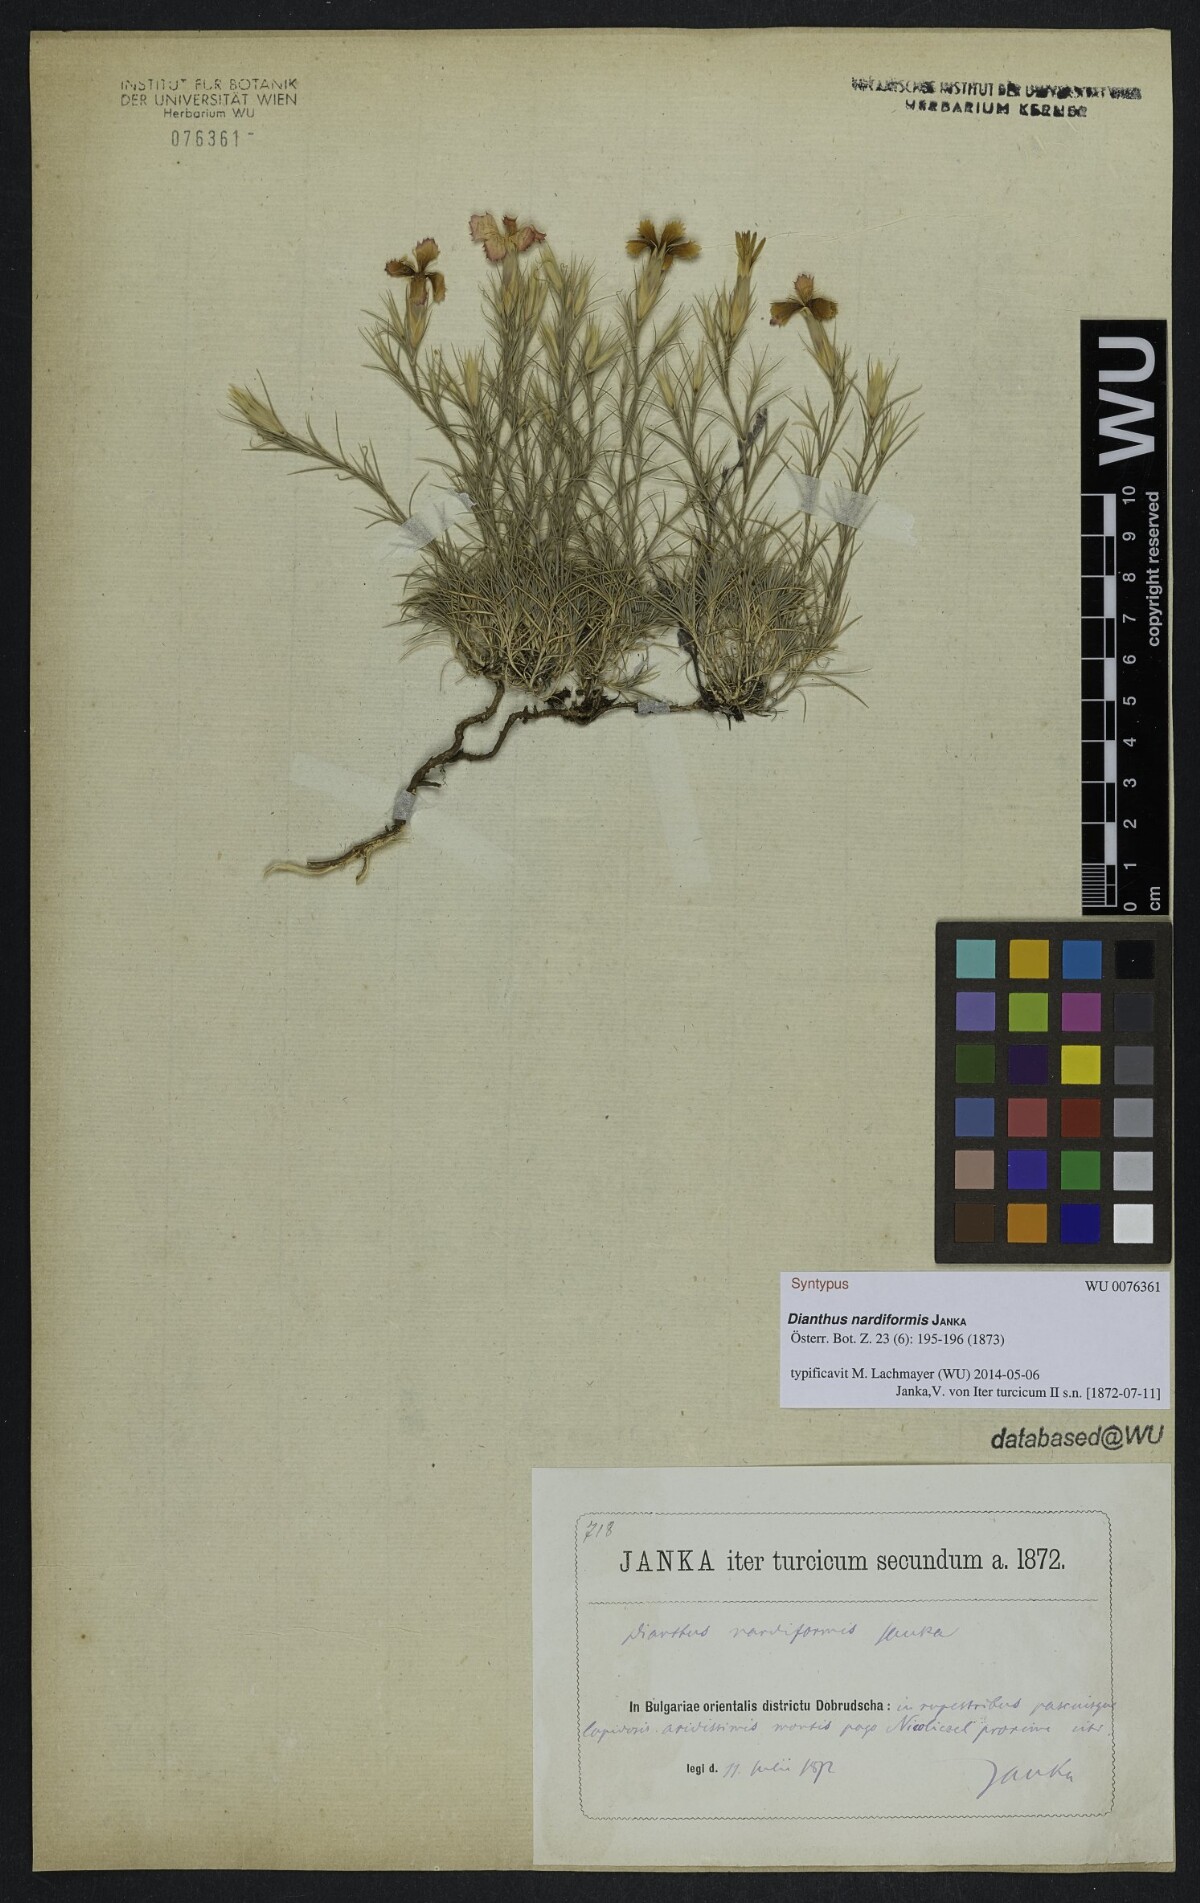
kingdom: Plantae
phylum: Tracheophyta
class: Magnoliopsida
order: Caryophyllales
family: Caryophyllaceae
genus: Dianthus
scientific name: Dianthus nardiformis
